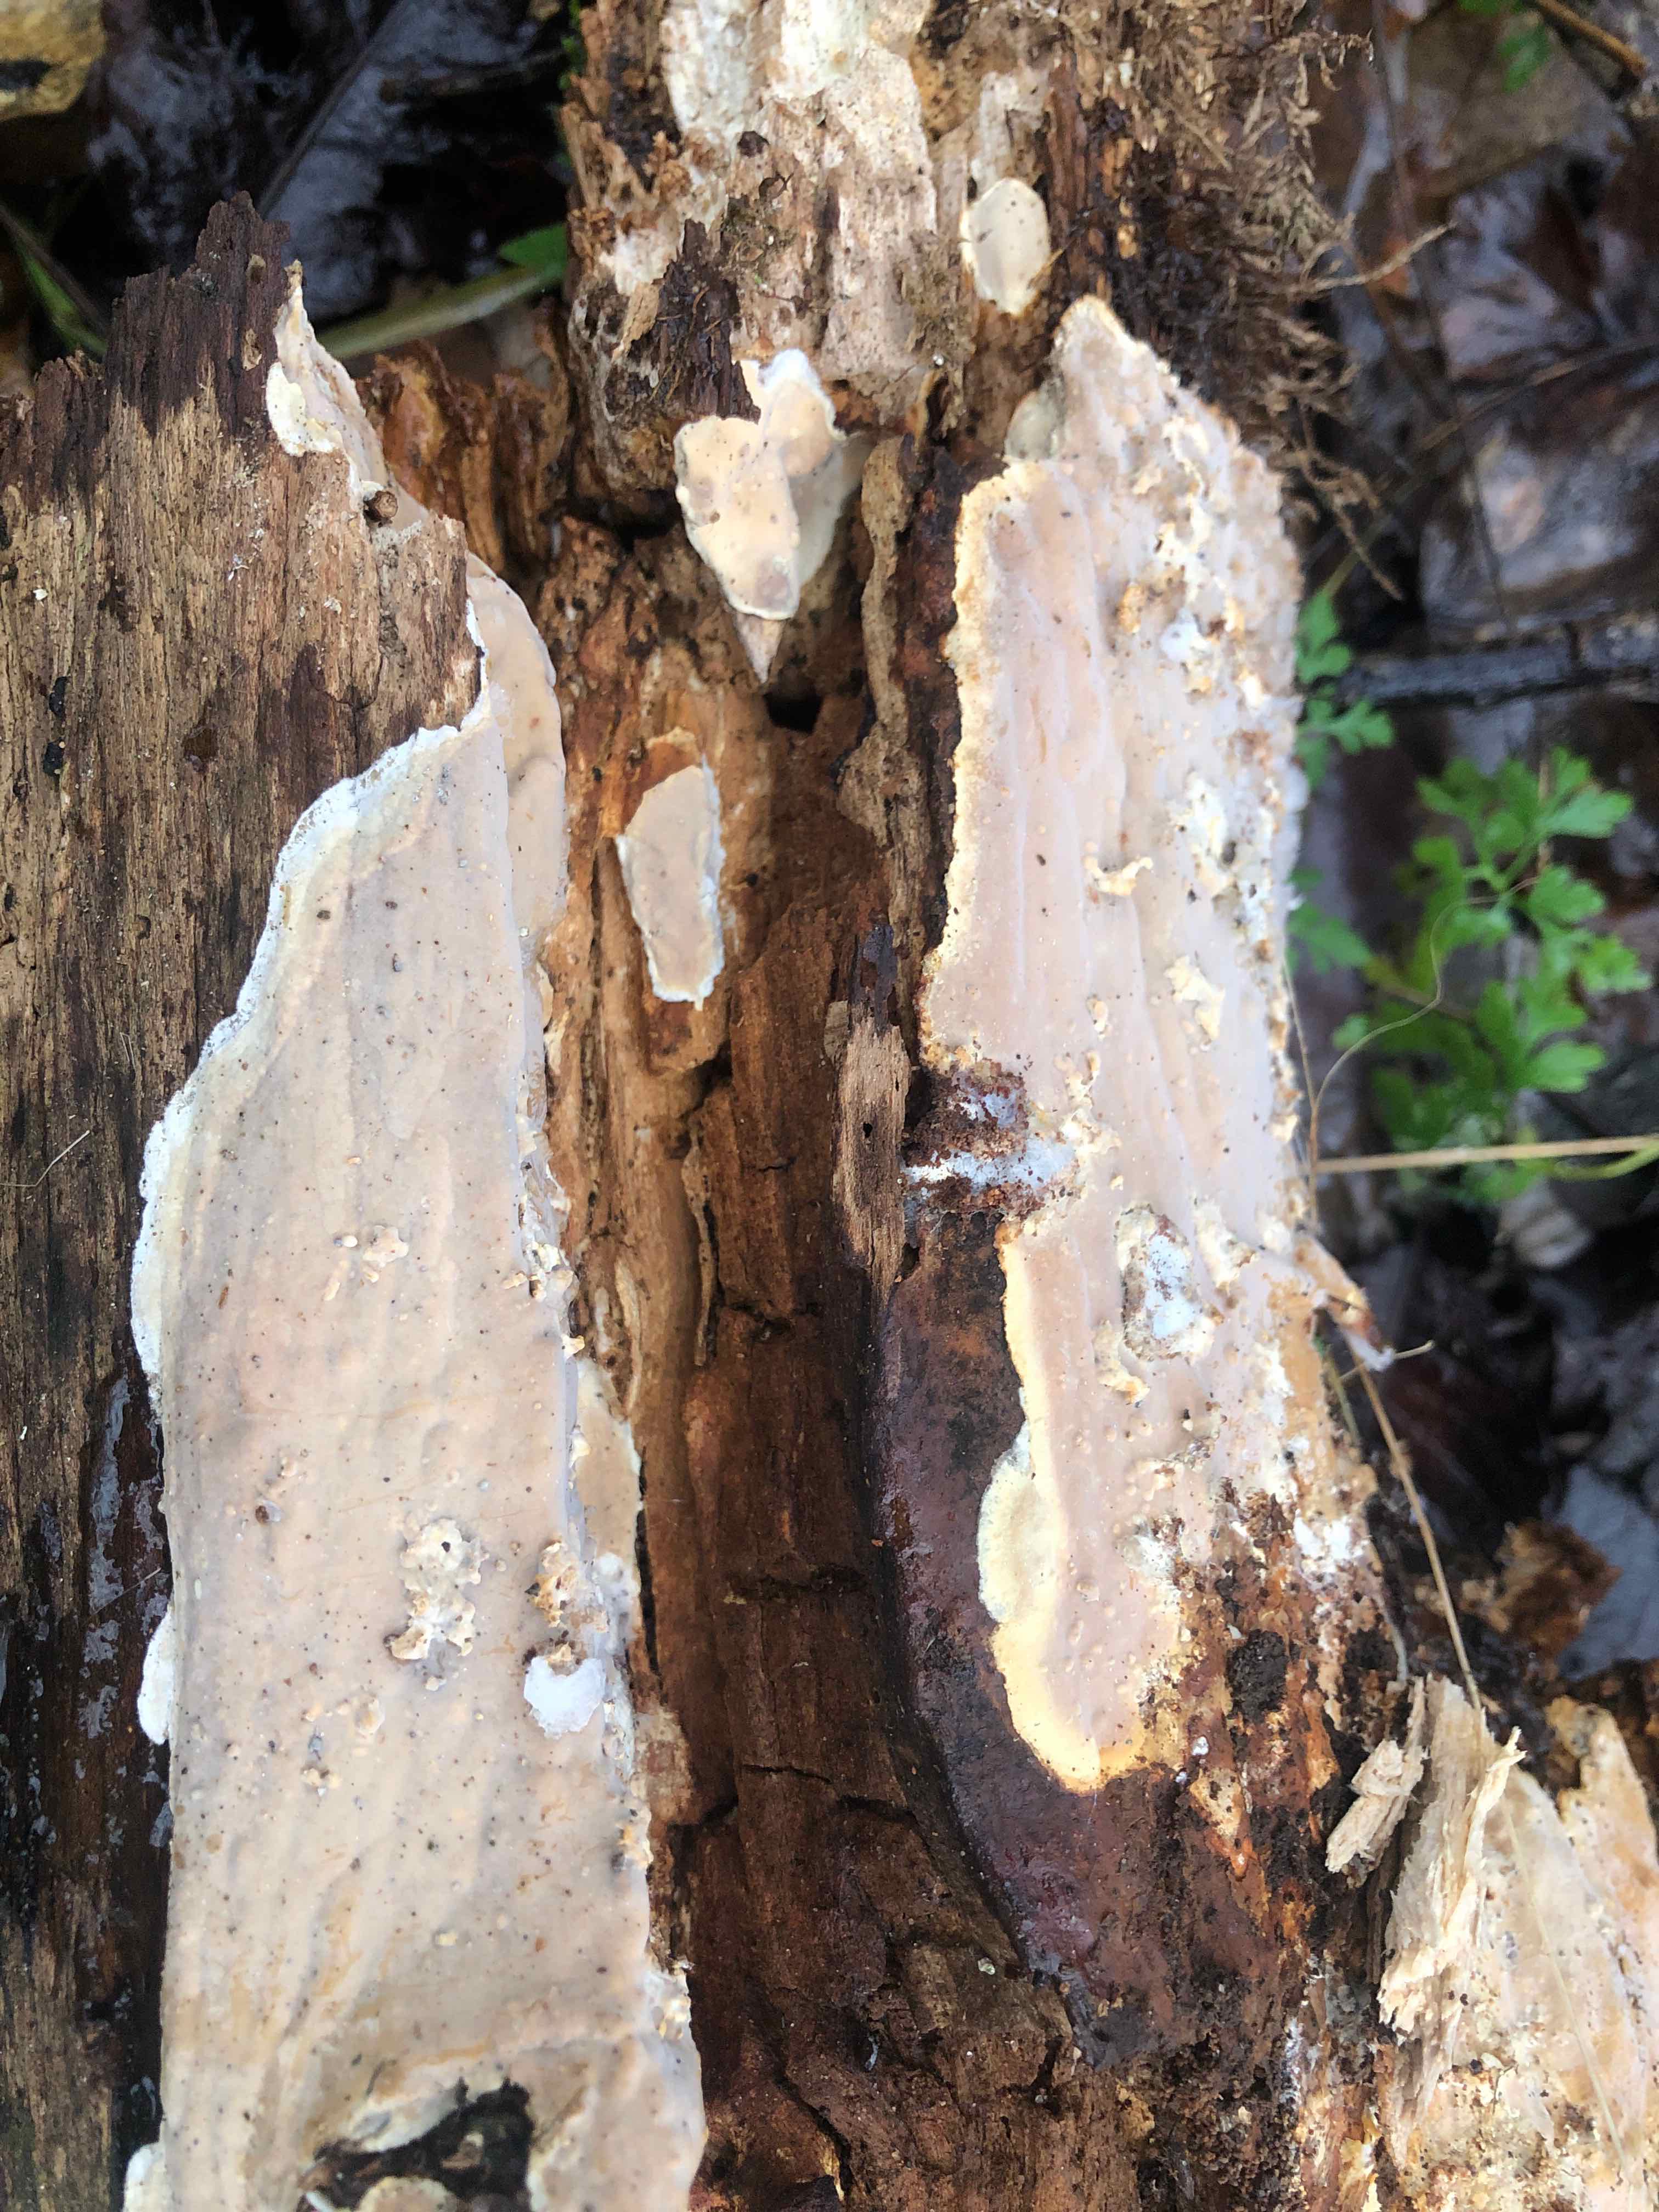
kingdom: Fungi
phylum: Basidiomycota
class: Agaricomycetes
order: Russulales
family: Peniophoraceae
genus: Scytinostroma
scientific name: Scytinostroma hemidichophyticum
